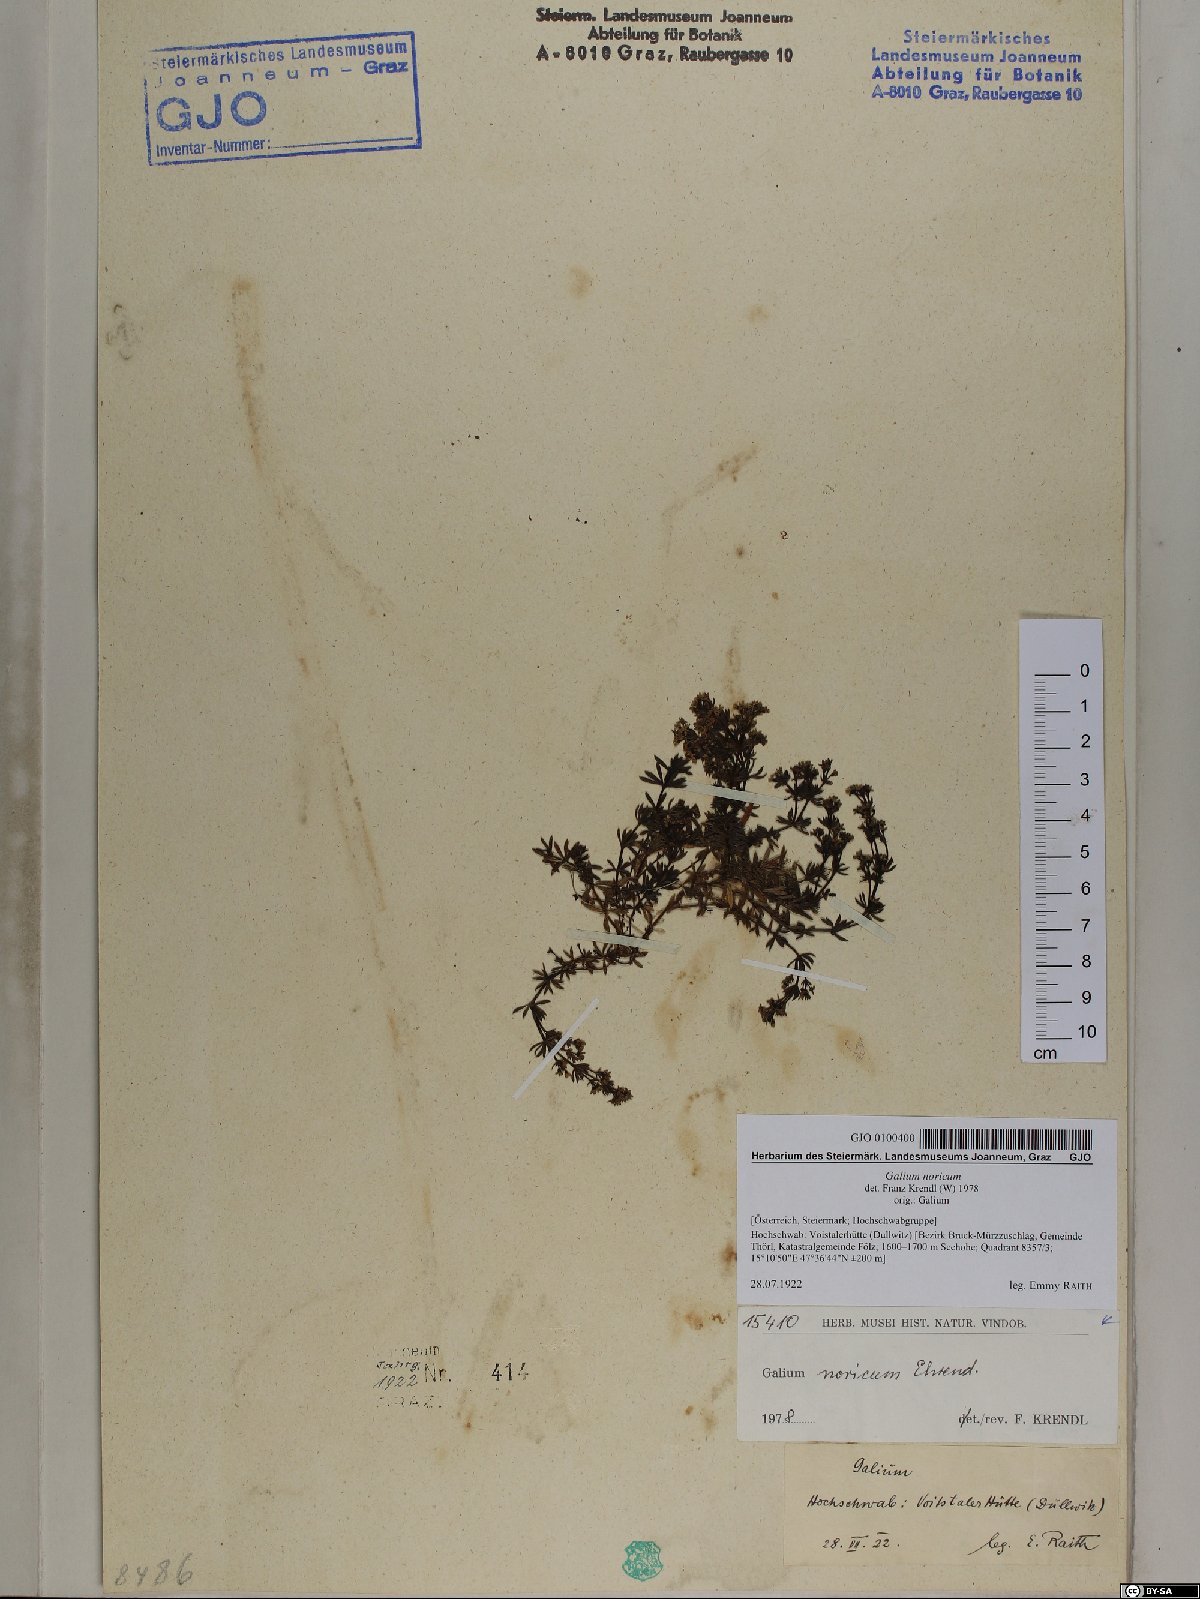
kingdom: Plantae
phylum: Tracheophyta
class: Magnoliopsida
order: Gentianales
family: Rubiaceae
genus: Galium
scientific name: Galium noricum
